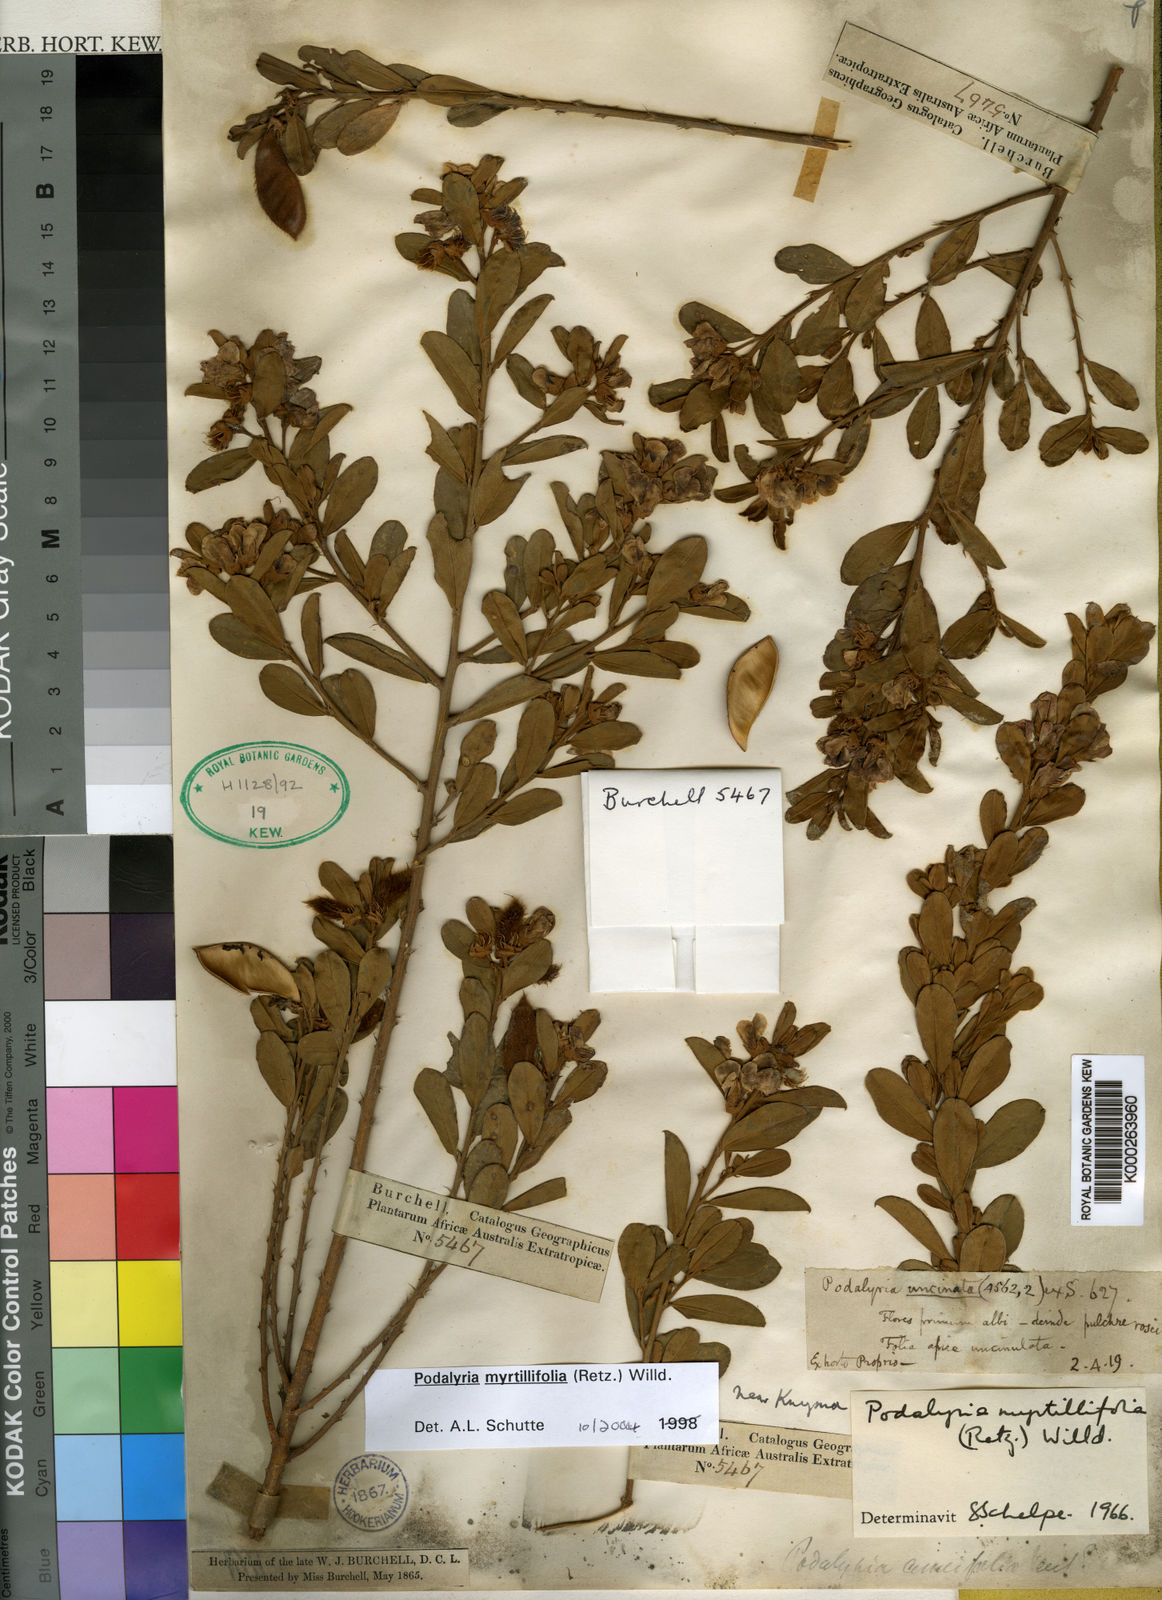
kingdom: Plantae
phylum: Tracheophyta
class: Magnoliopsida
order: Fabales
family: Fabaceae
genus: Podalyria
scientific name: Podalyria myrtillifolia
